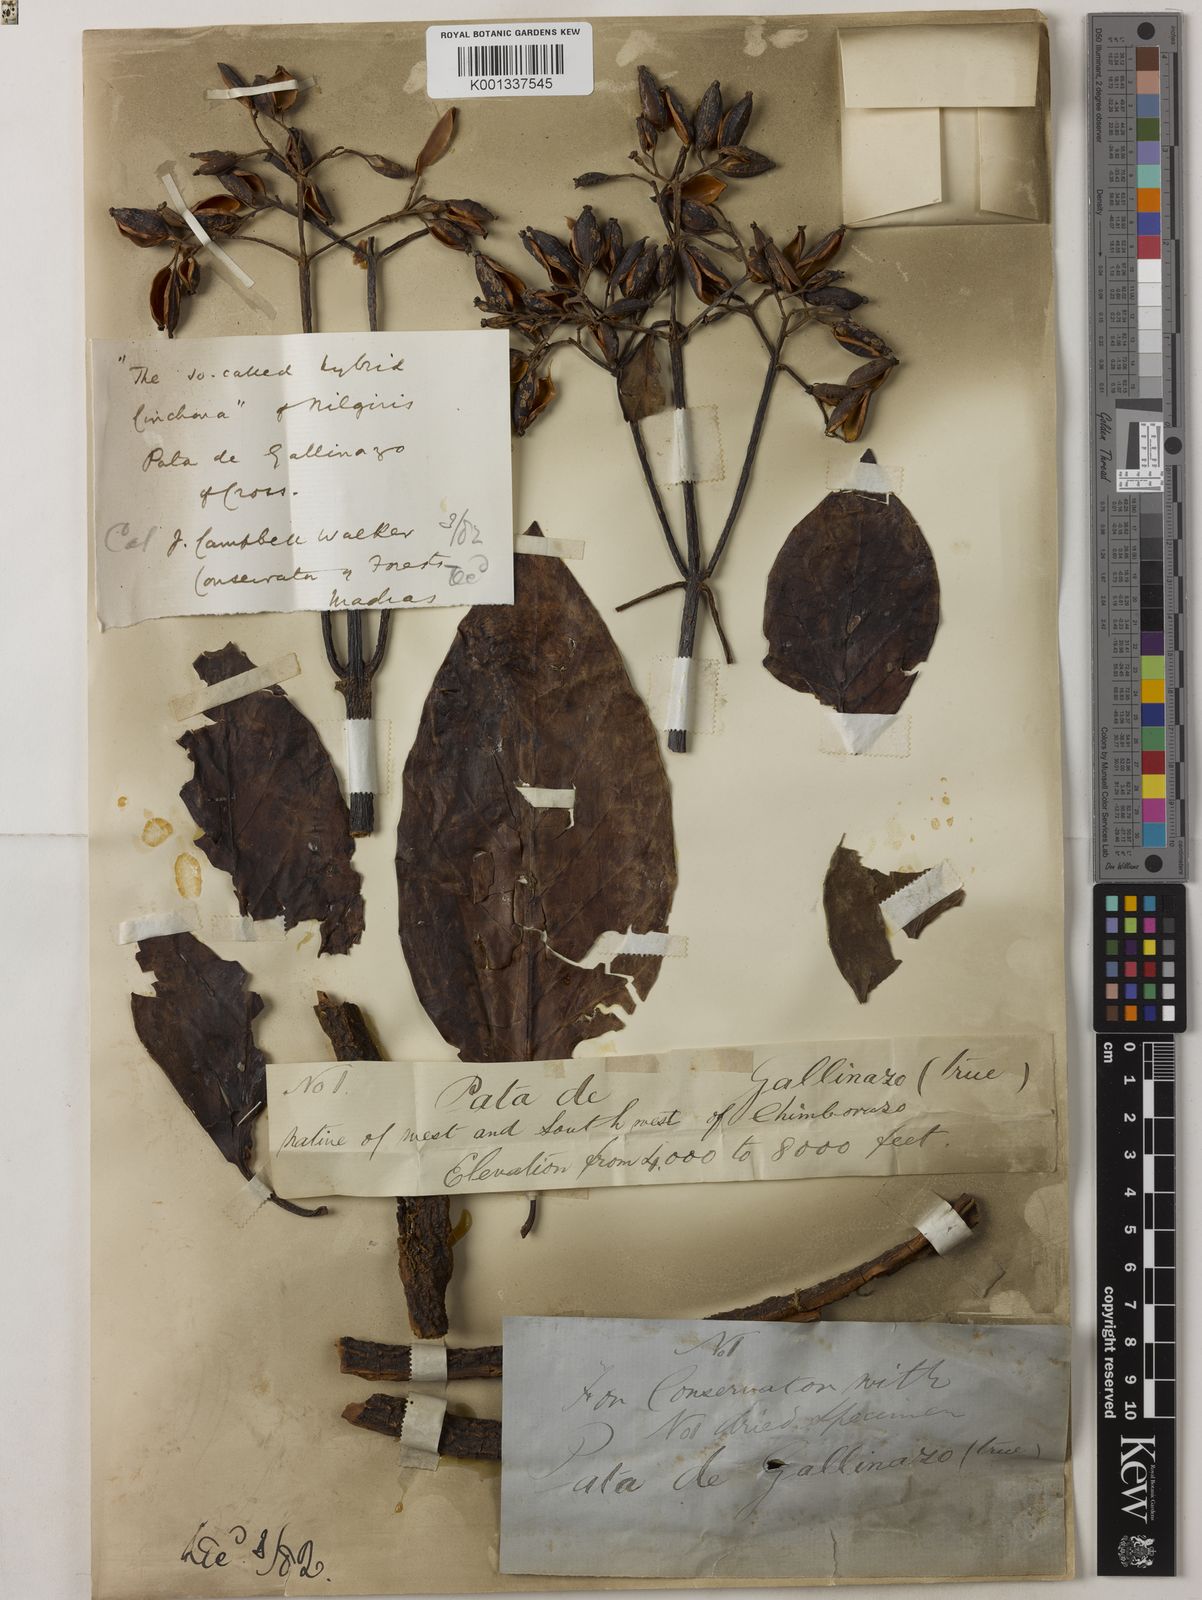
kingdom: Plantae
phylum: Tracheophyta
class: Magnoliopsida
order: Gentianales
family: Rubiaceae
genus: Cinchona
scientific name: Cinchona
